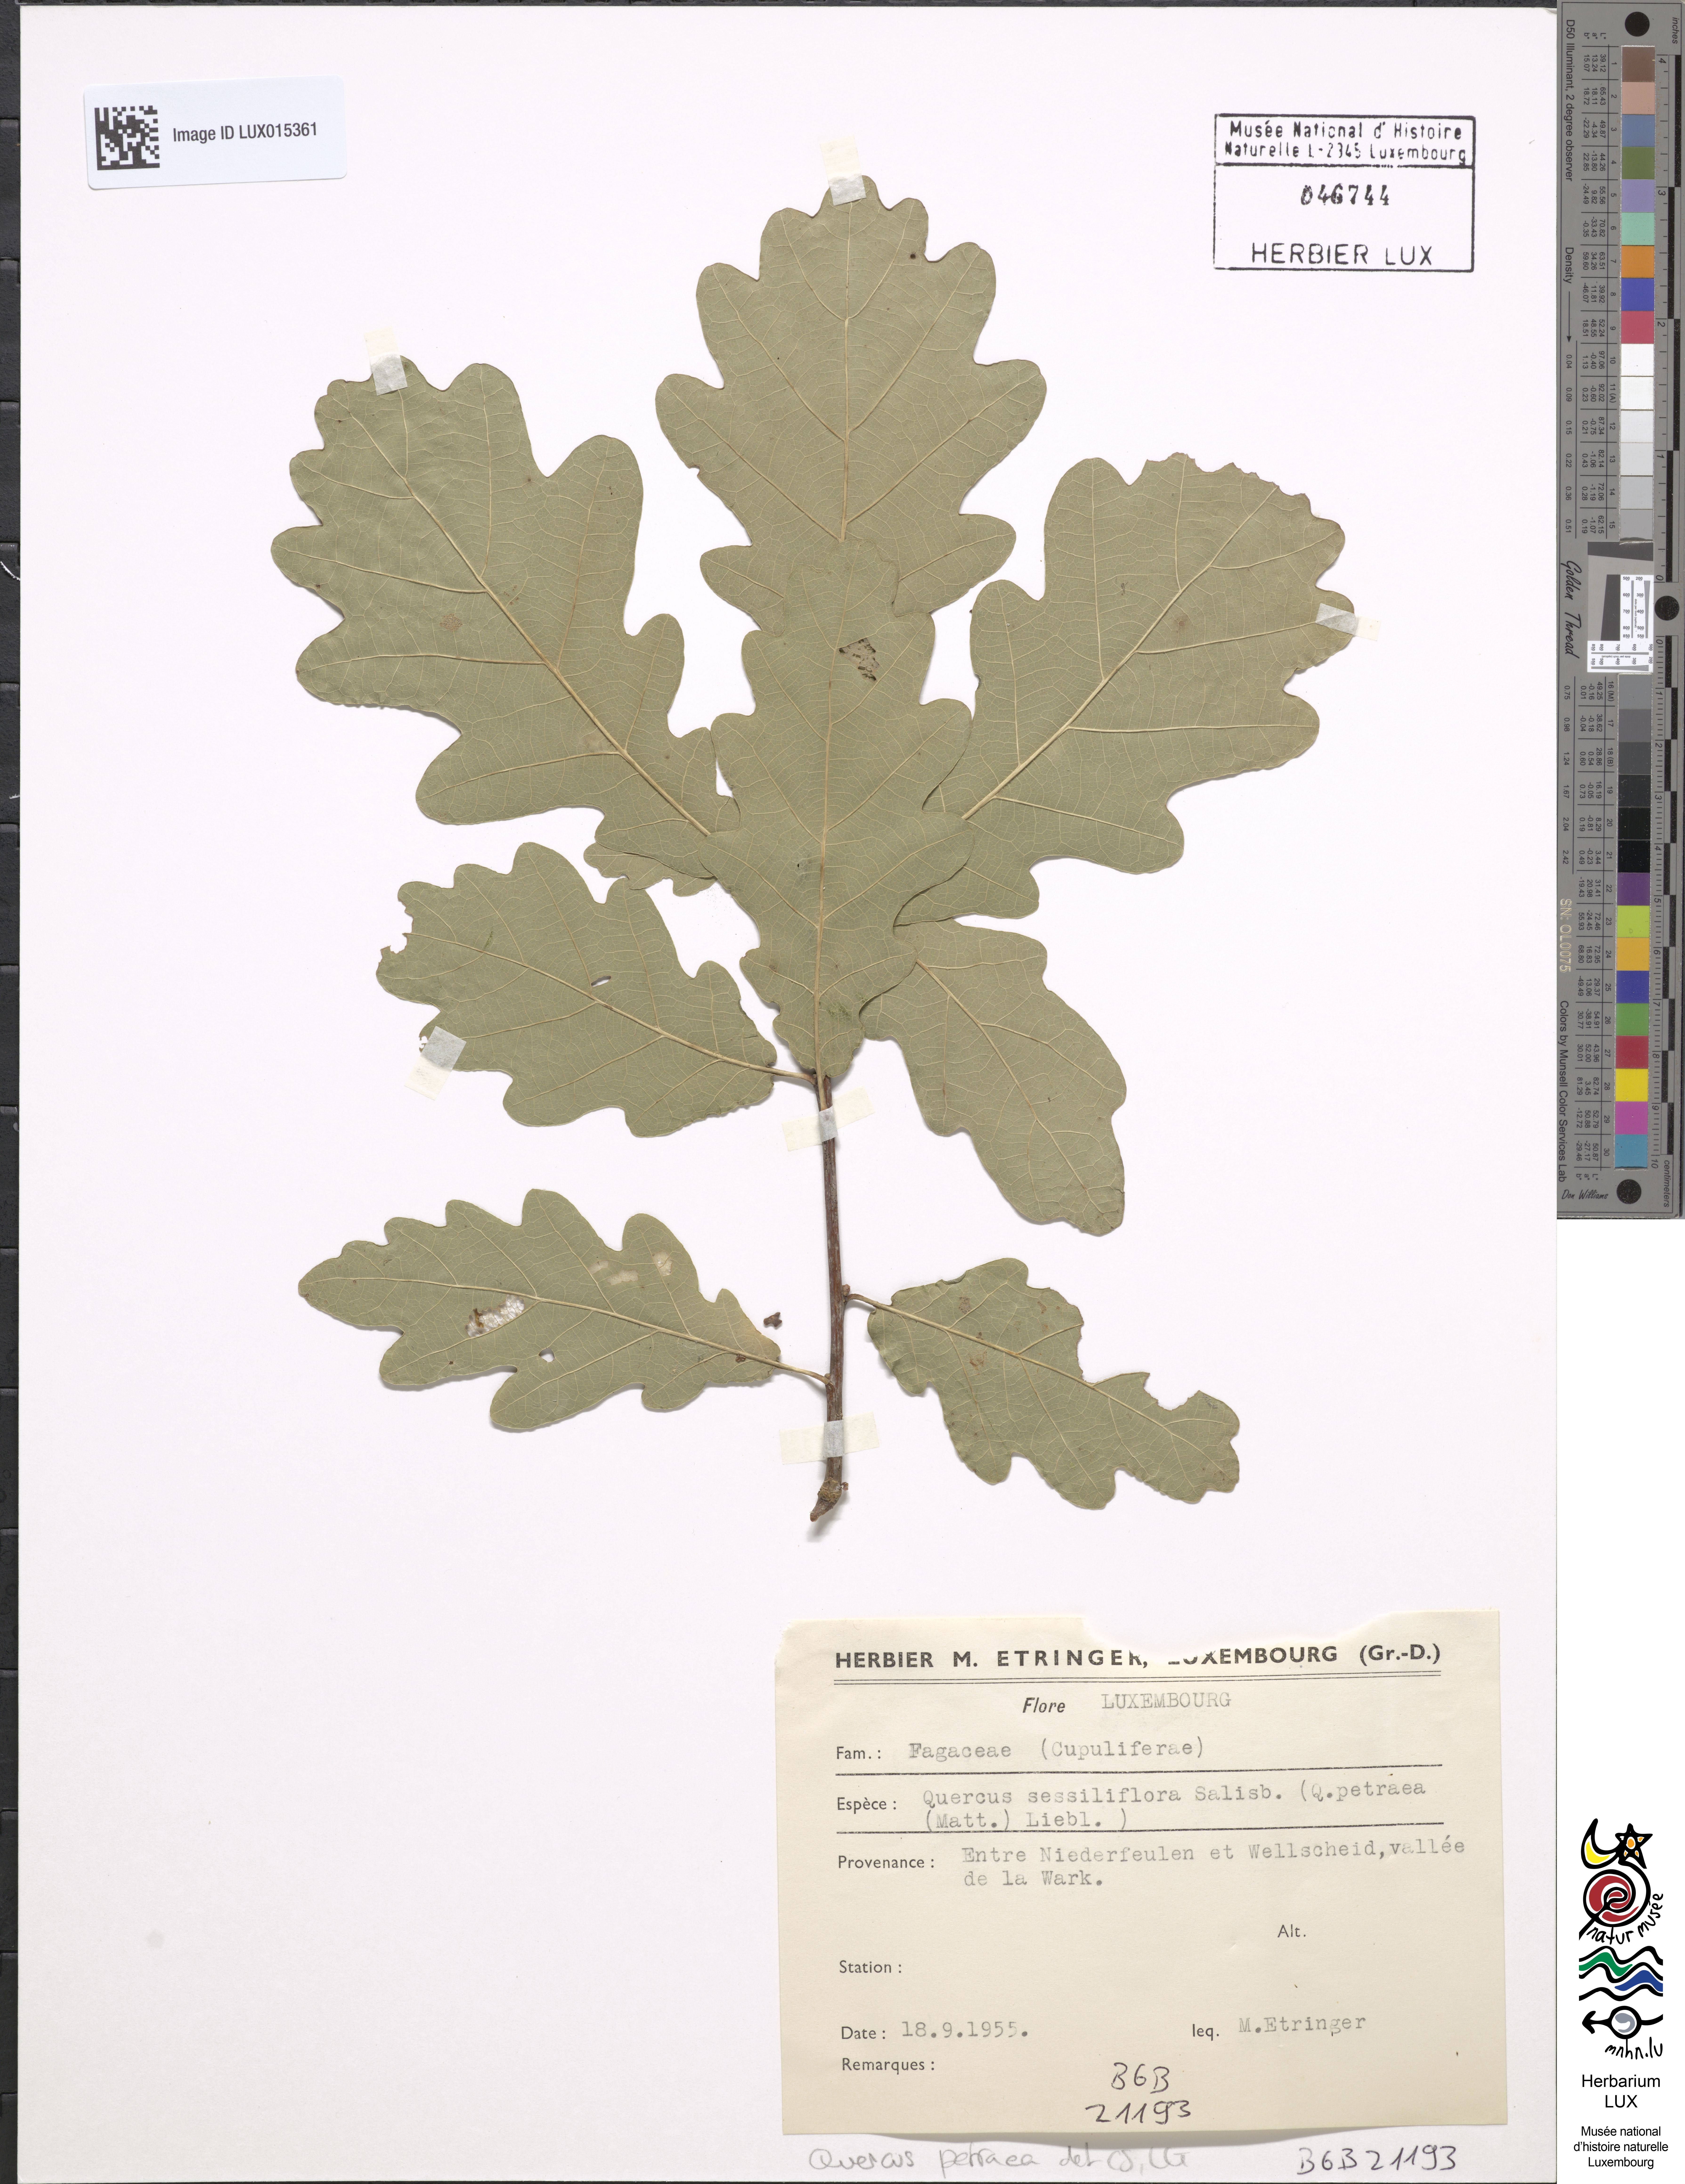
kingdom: Plantae
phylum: Tracheophyta
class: Magnoliopsida
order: Fagales
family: Fagaceae
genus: Quercus
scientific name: Quercus petraea
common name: Sessile oak
